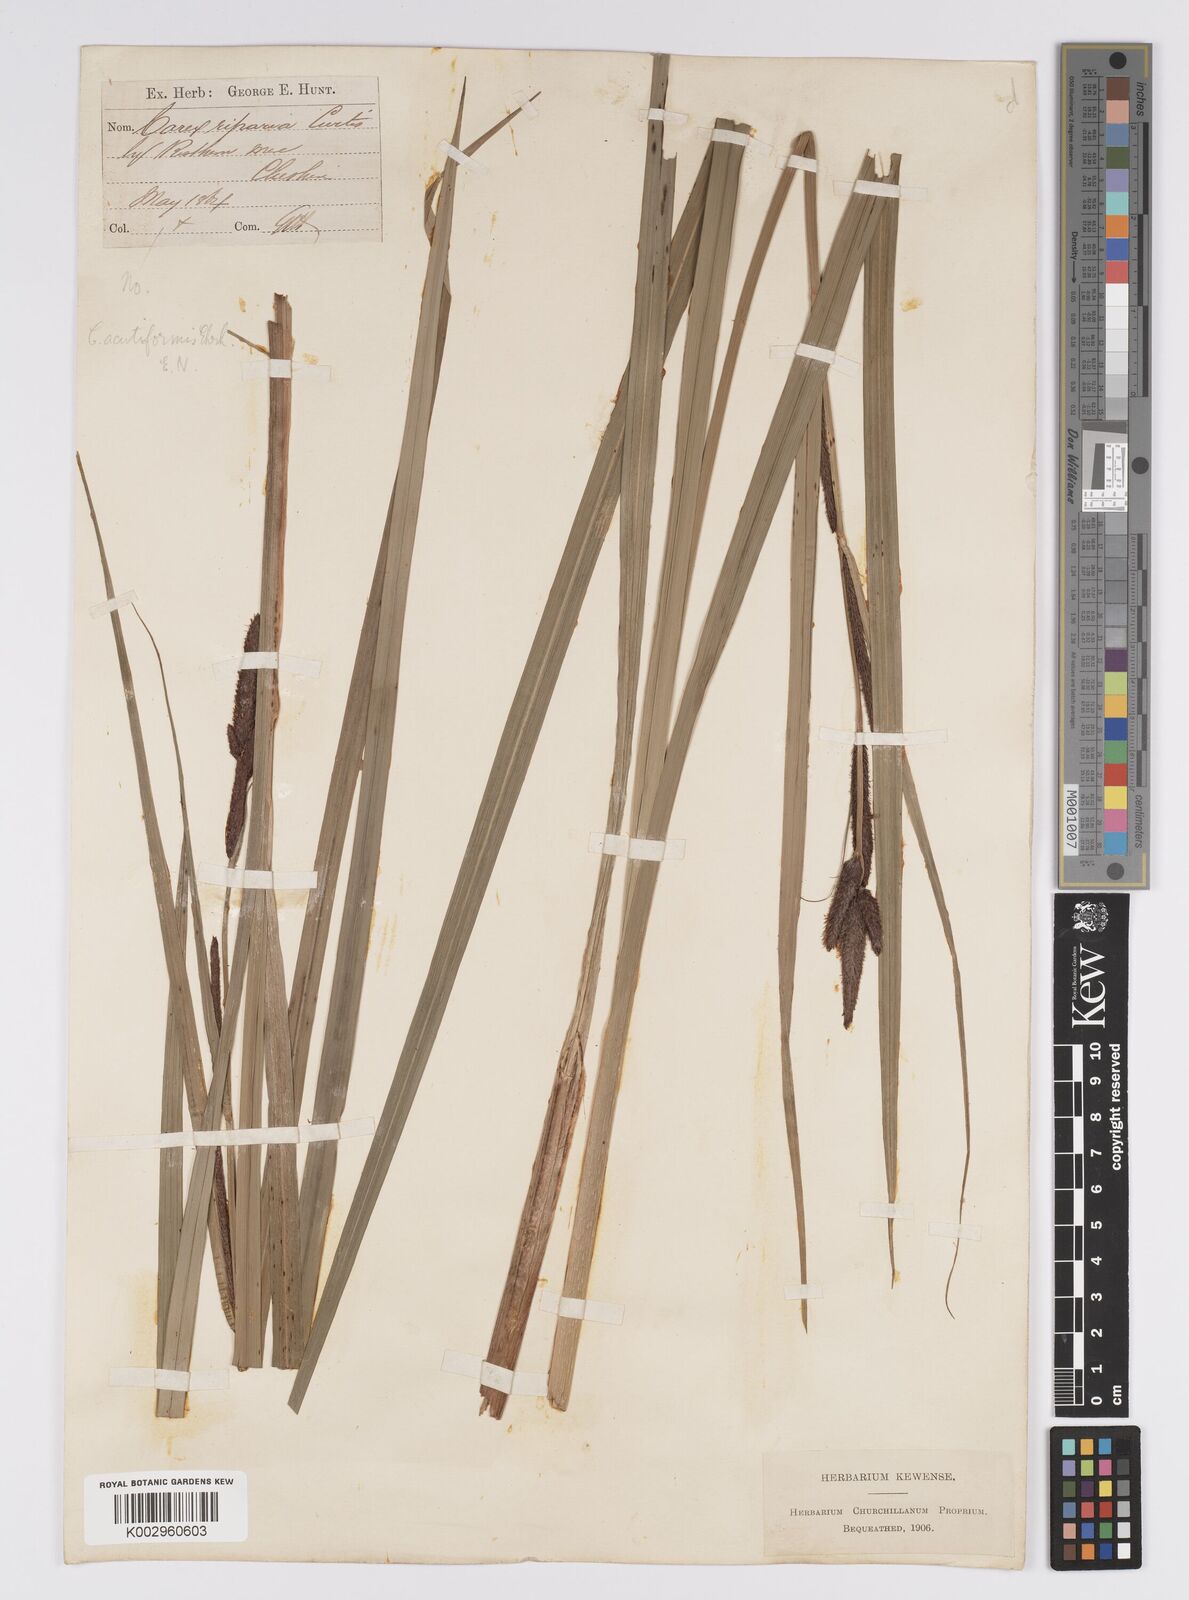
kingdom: Plantae
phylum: Tracheophyta
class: Liliopsida
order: Poales
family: Cyperaceae
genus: Carex
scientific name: Carex acutiformis
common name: Lesser pond-sedge
